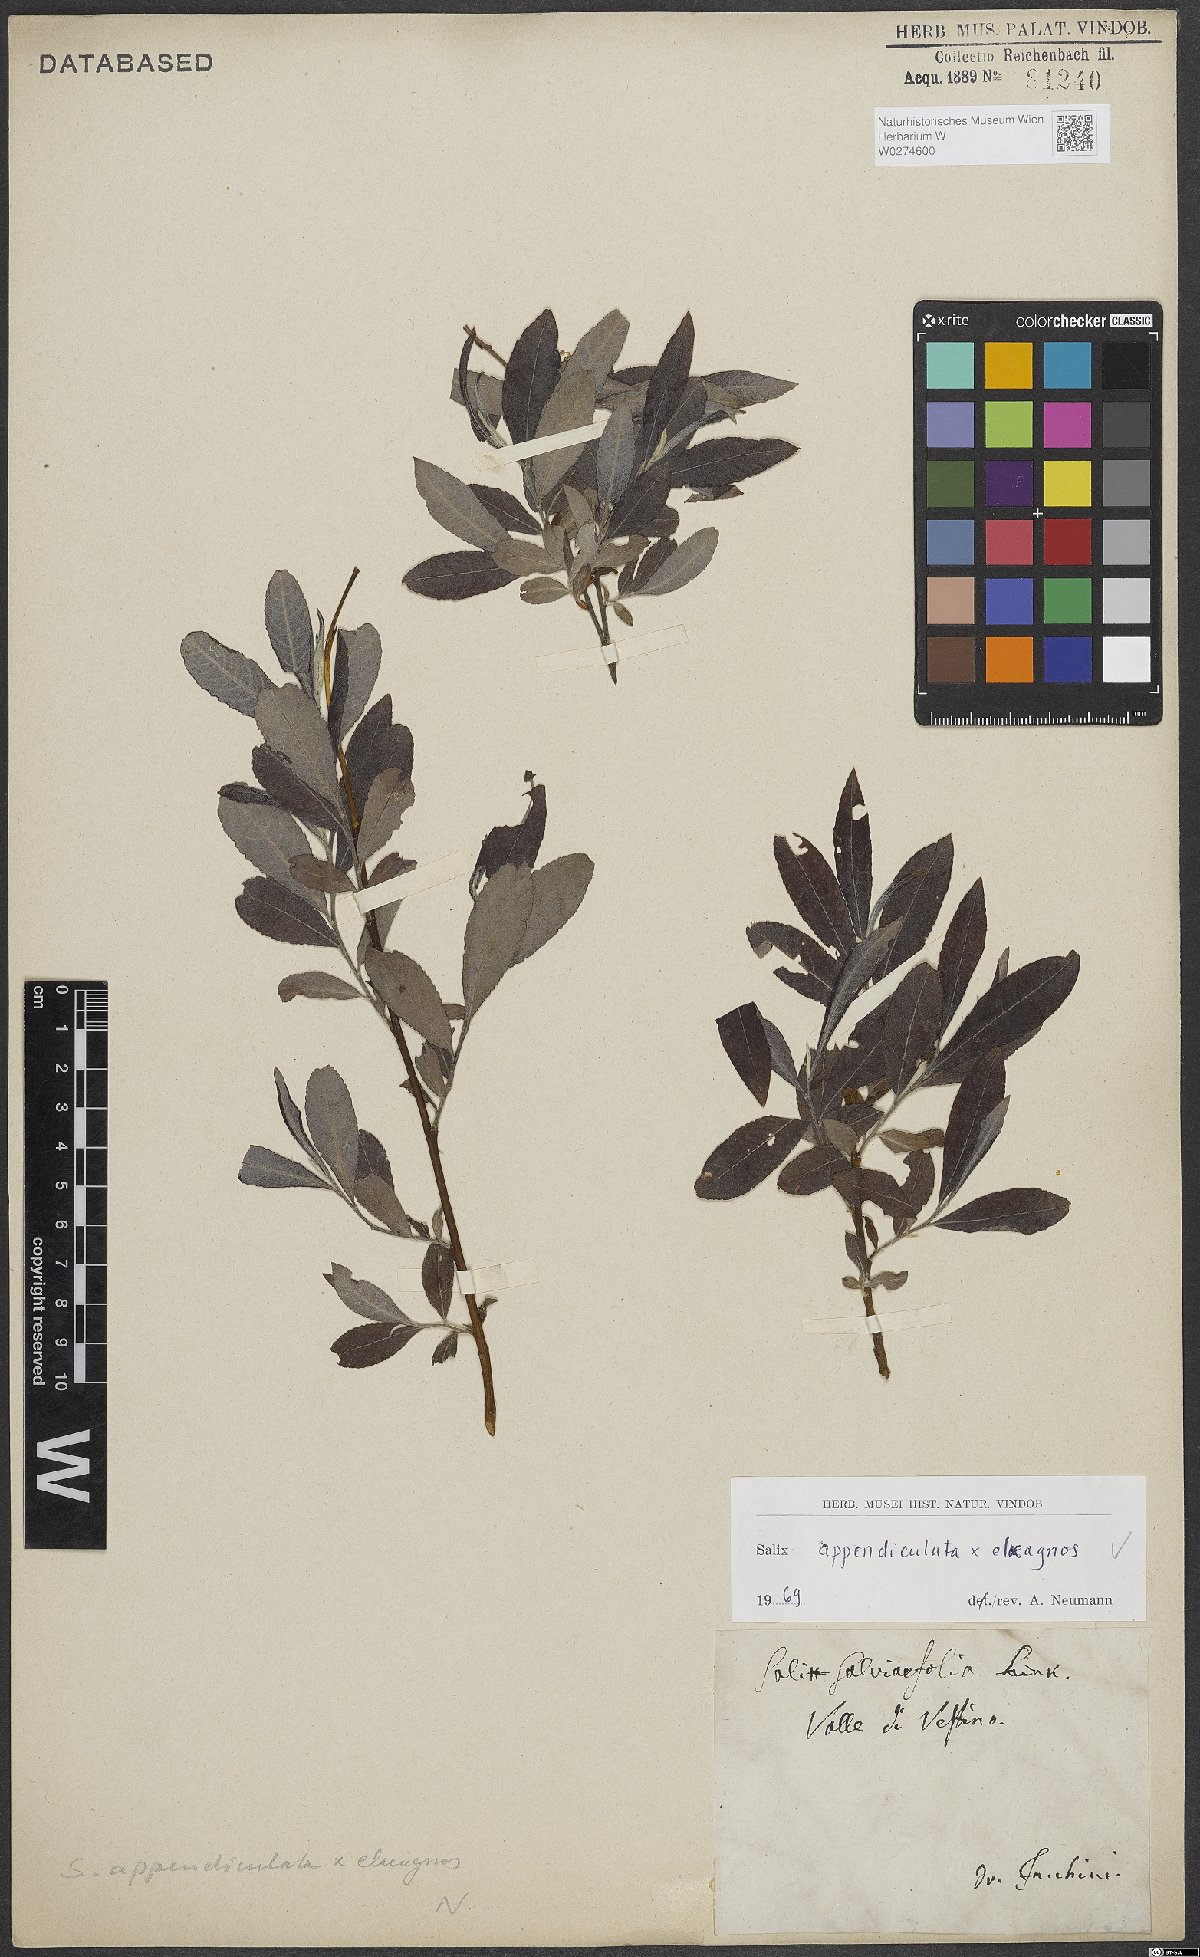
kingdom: Plantae
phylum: Tracheophyta
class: Magnoliopsida
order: Malpighiales
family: Salicaceae
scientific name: Salicaceae
